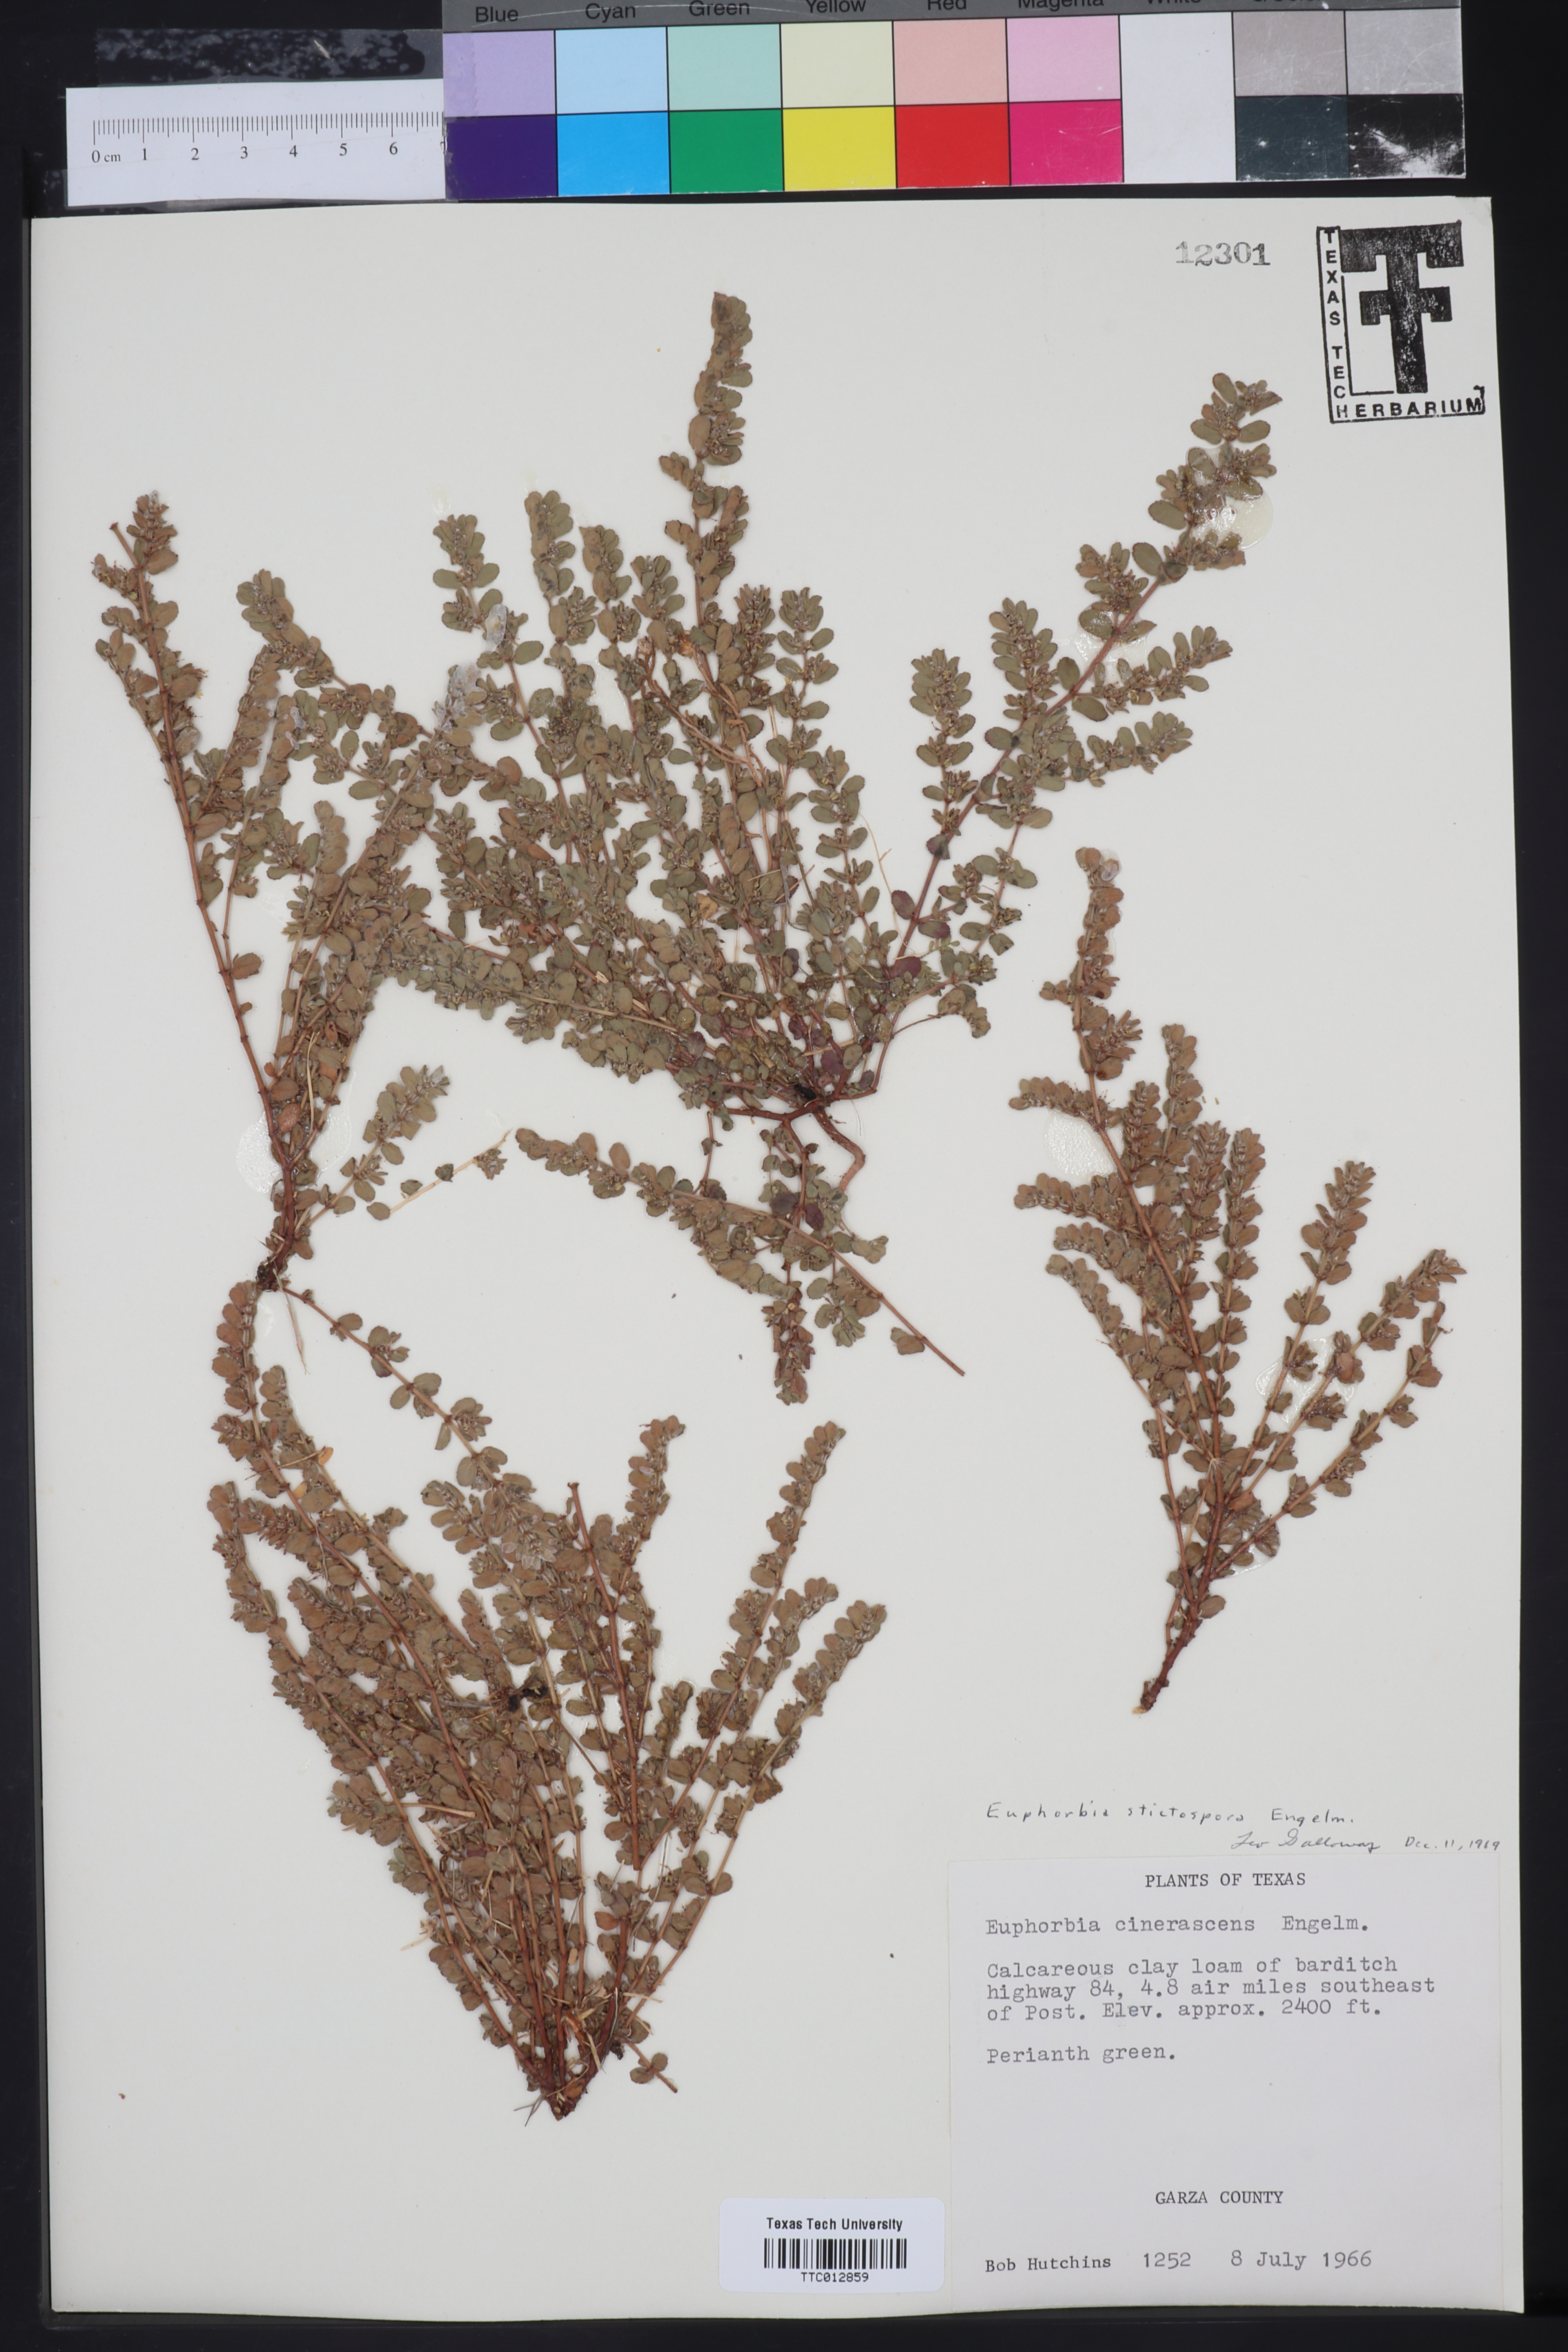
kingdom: Plantae
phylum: Tracheophyta
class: Magnoliopsida
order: Malpighiales
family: Euphorbiaceae
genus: Euphorbia
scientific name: Euphorbia stictospora
